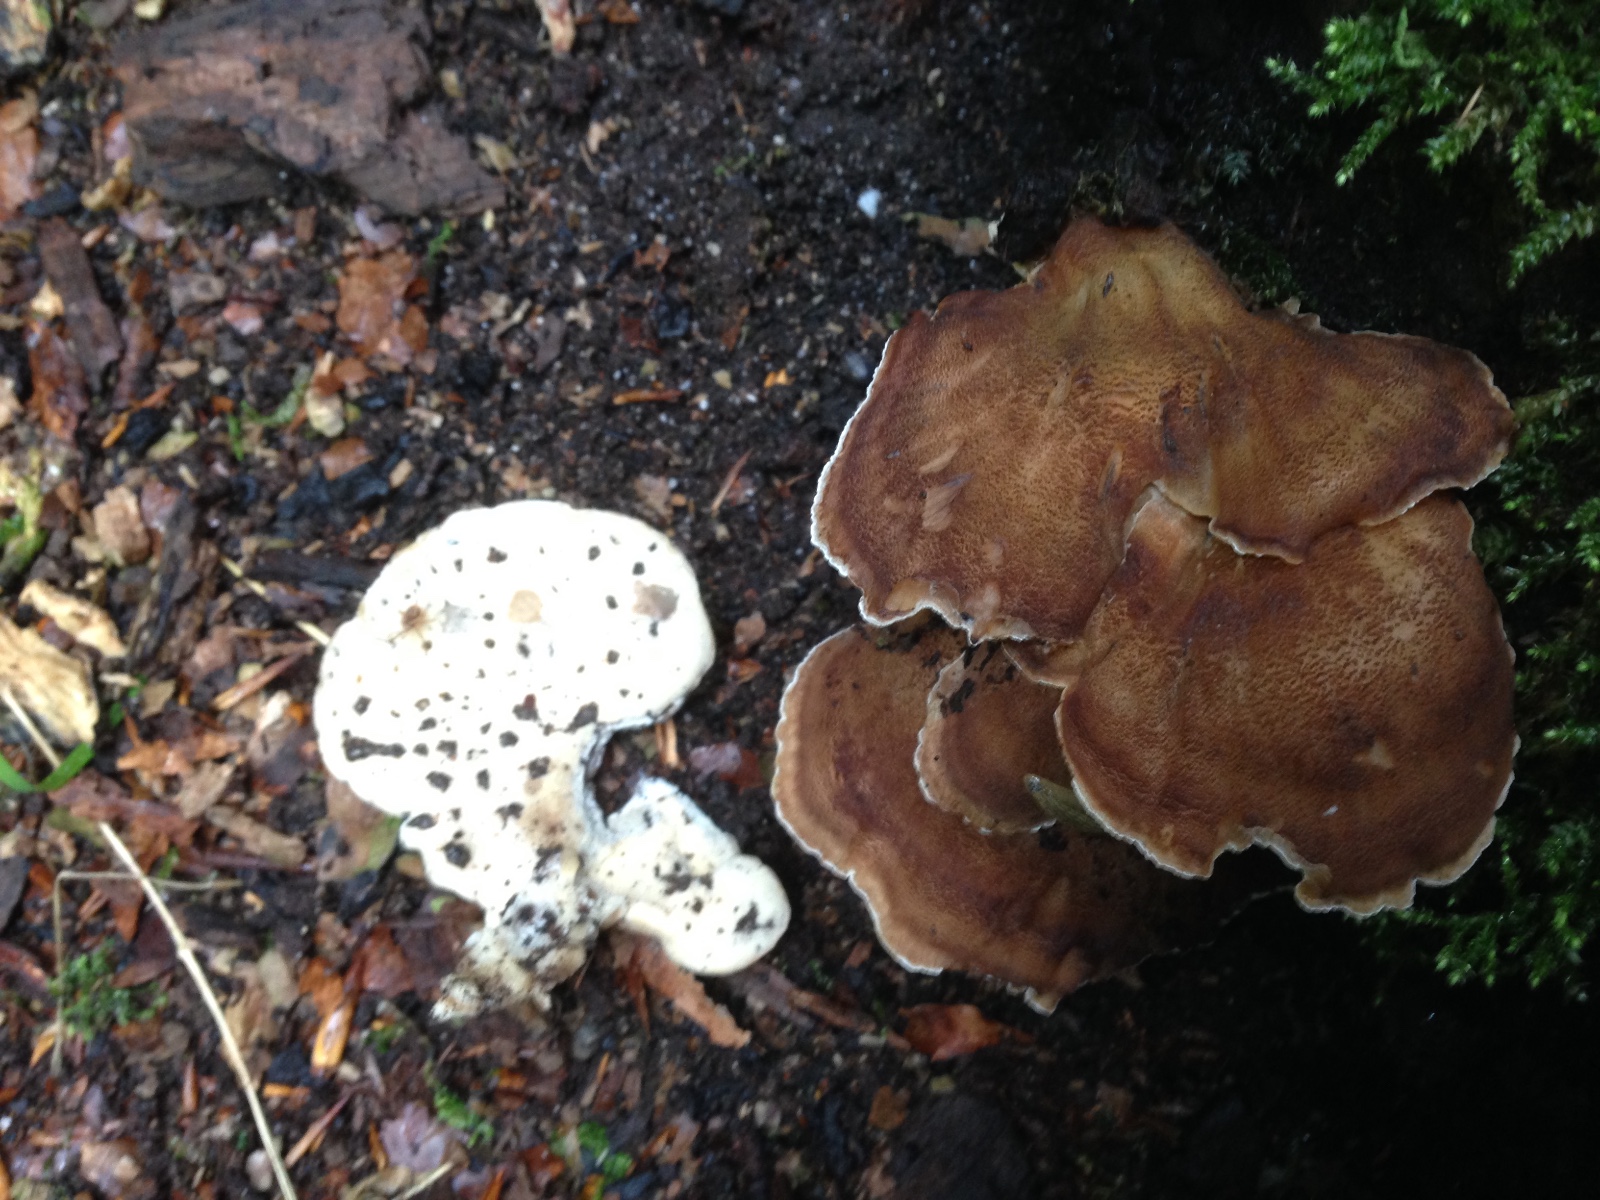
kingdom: Fungi
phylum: Basidiomycota
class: Agaricomycetes
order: Polyporales
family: Meripilaceae
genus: Meripilus
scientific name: Meripilus giganteus
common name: kæmpeporesvamp
